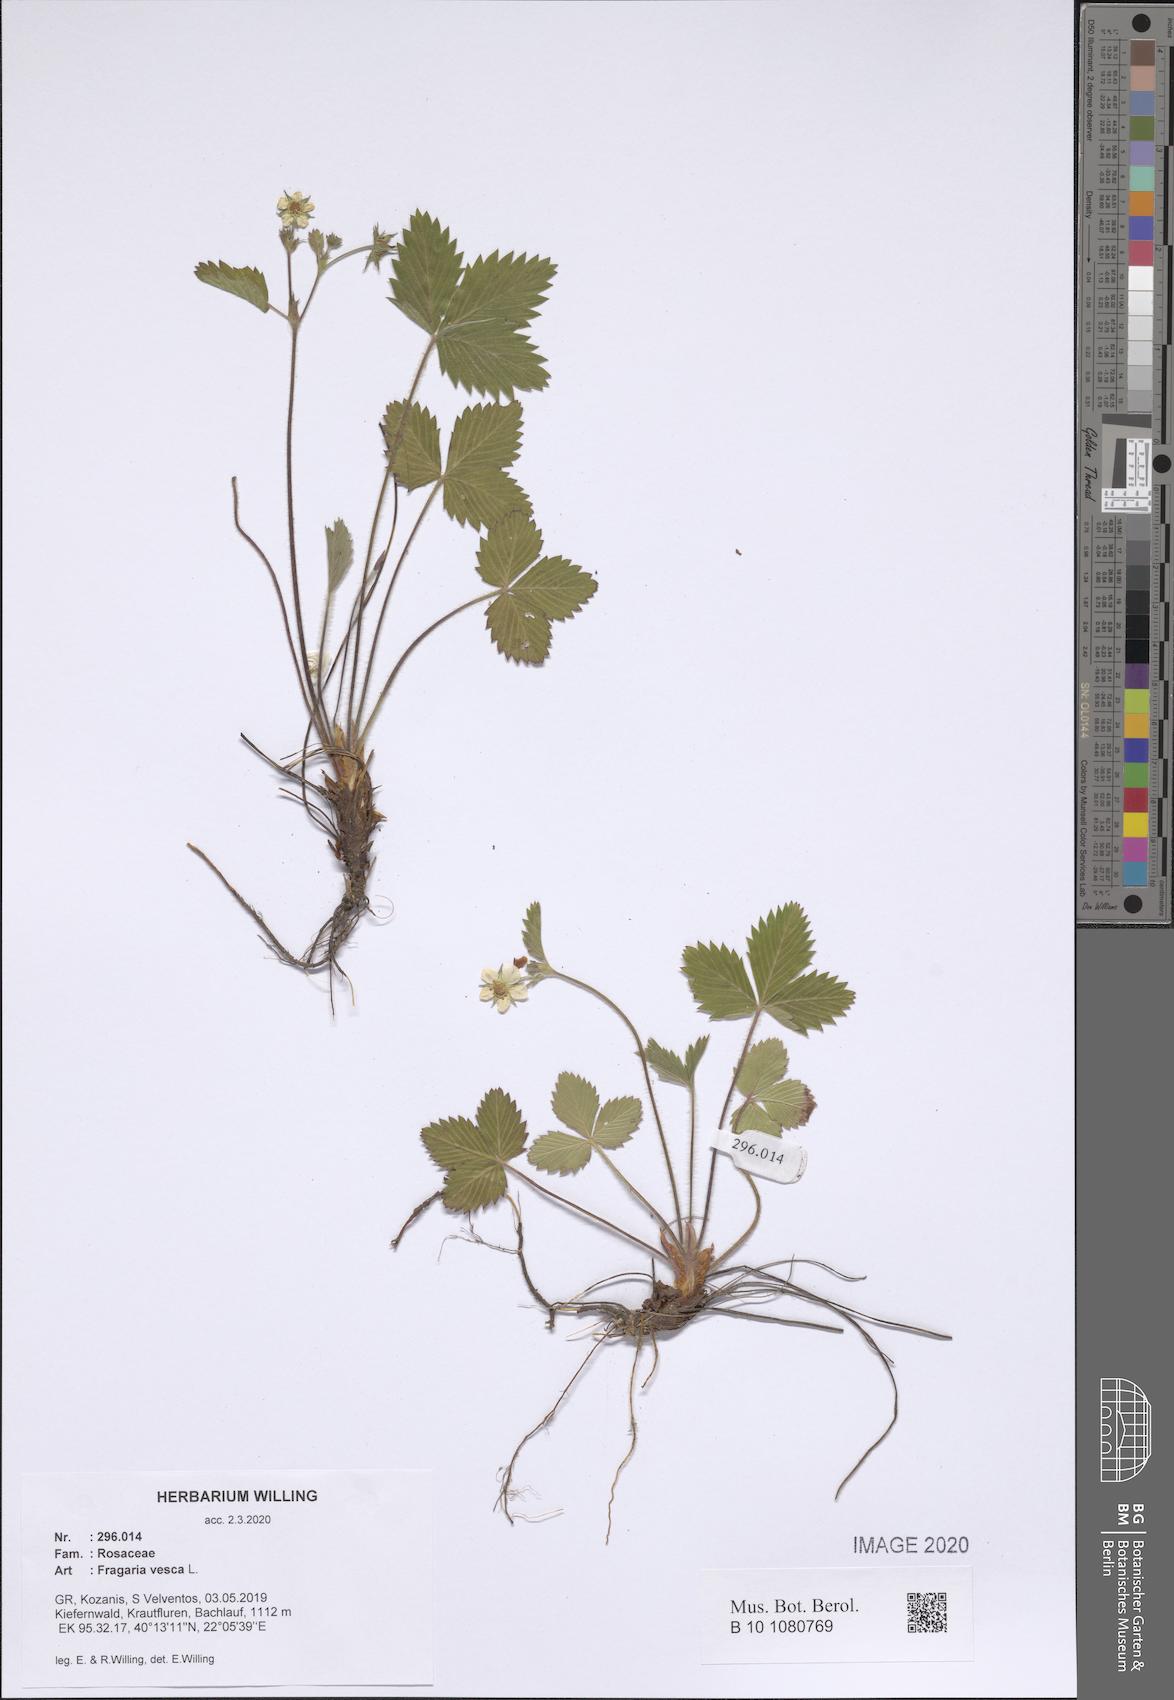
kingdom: Plantae
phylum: Tracheophyta
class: Magnoliopsida
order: Rosales
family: Rosaceae
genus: Fragaria
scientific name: Fragaria vesca
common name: Wild strawberry
